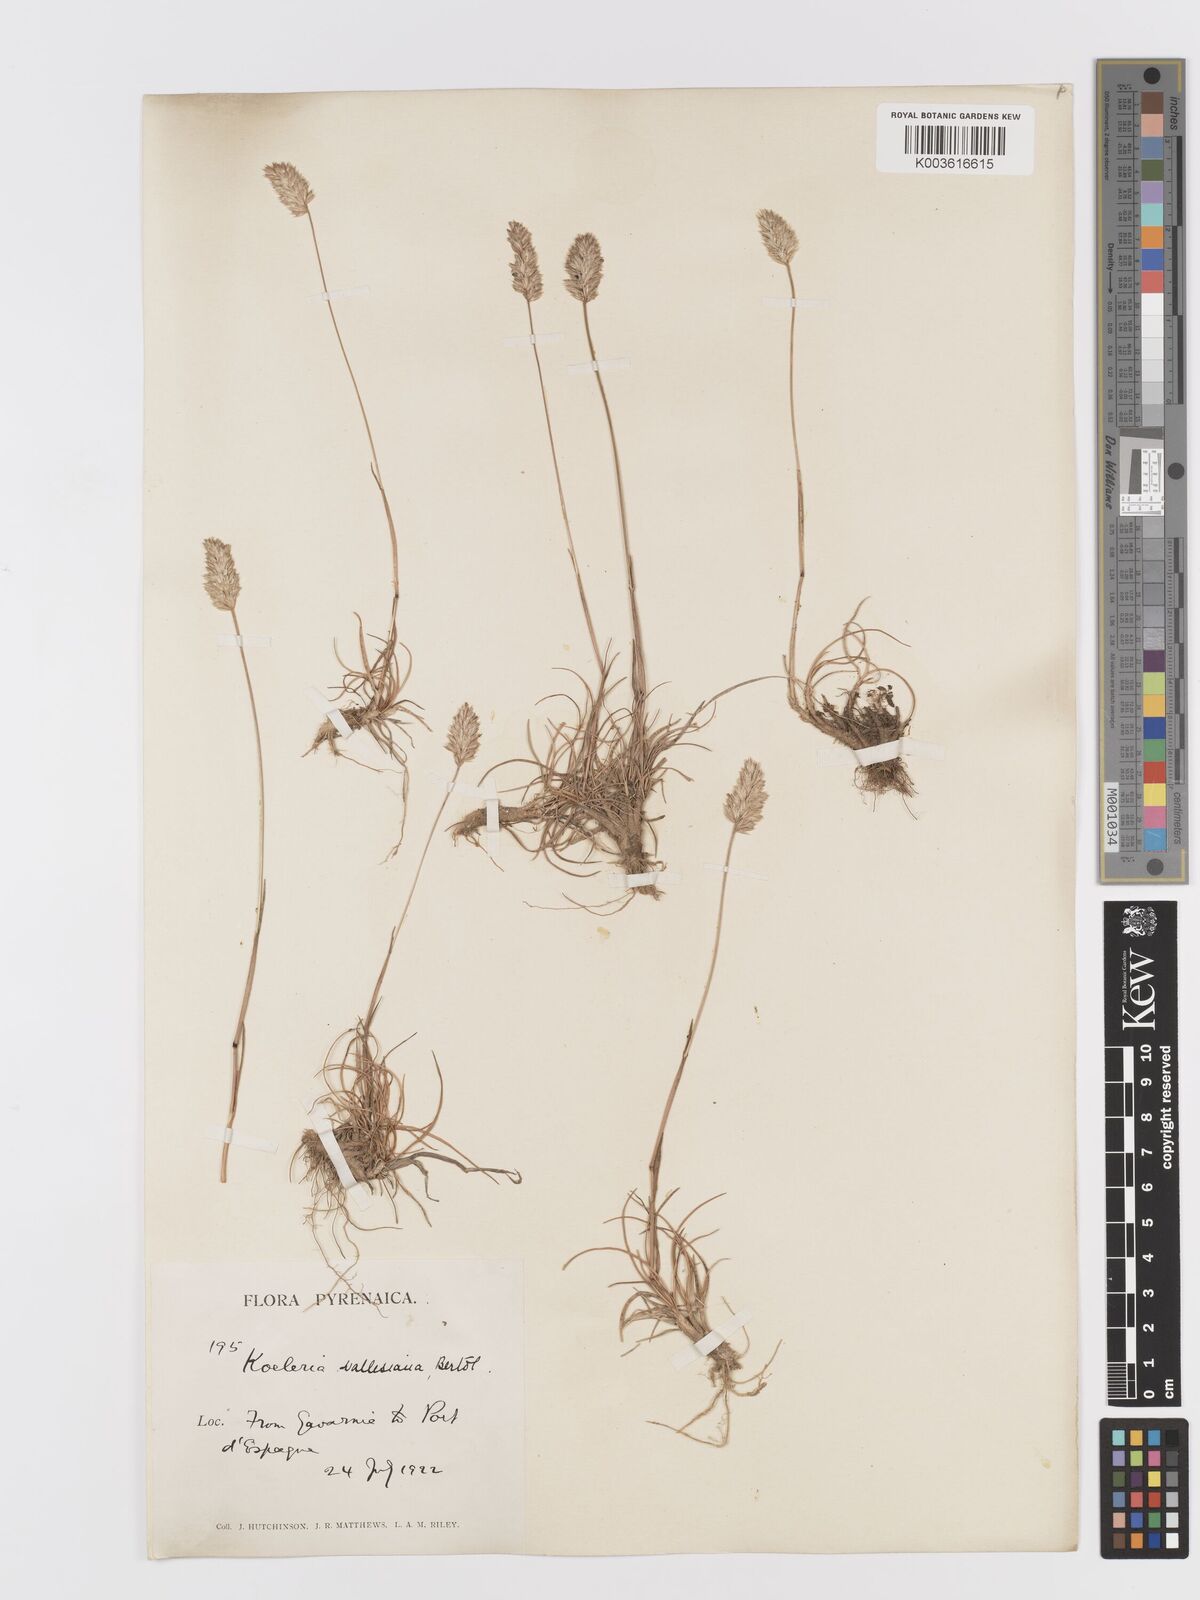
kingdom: Plantae
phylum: Tracheophyta
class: Liliopsida
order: Poales
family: Poaceae
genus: Koeleria
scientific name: Koeleria vallesiana
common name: Somerset hair-grass
